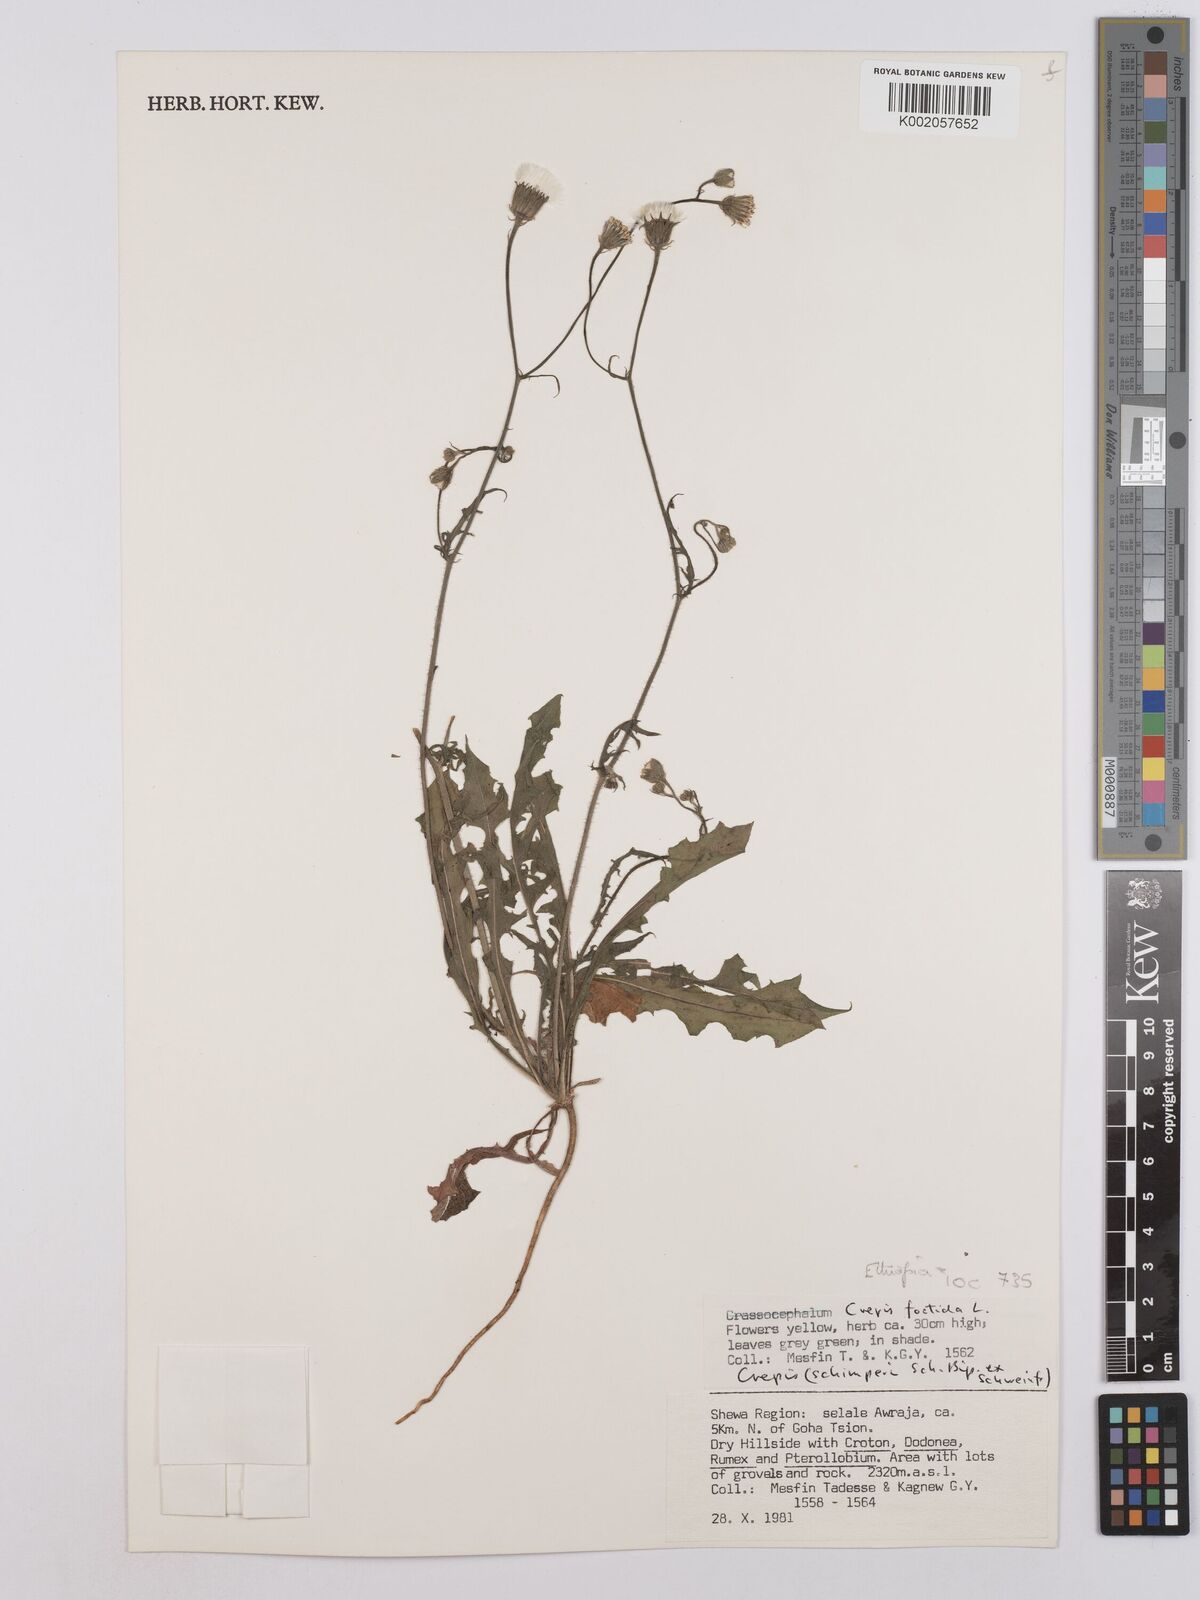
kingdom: Plantae
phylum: Tracheophyta
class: Magnoliopsida
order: Asterales
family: Asteraceae
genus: Crepis
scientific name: Crepis foetida
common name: Stinking hawk's-beard
